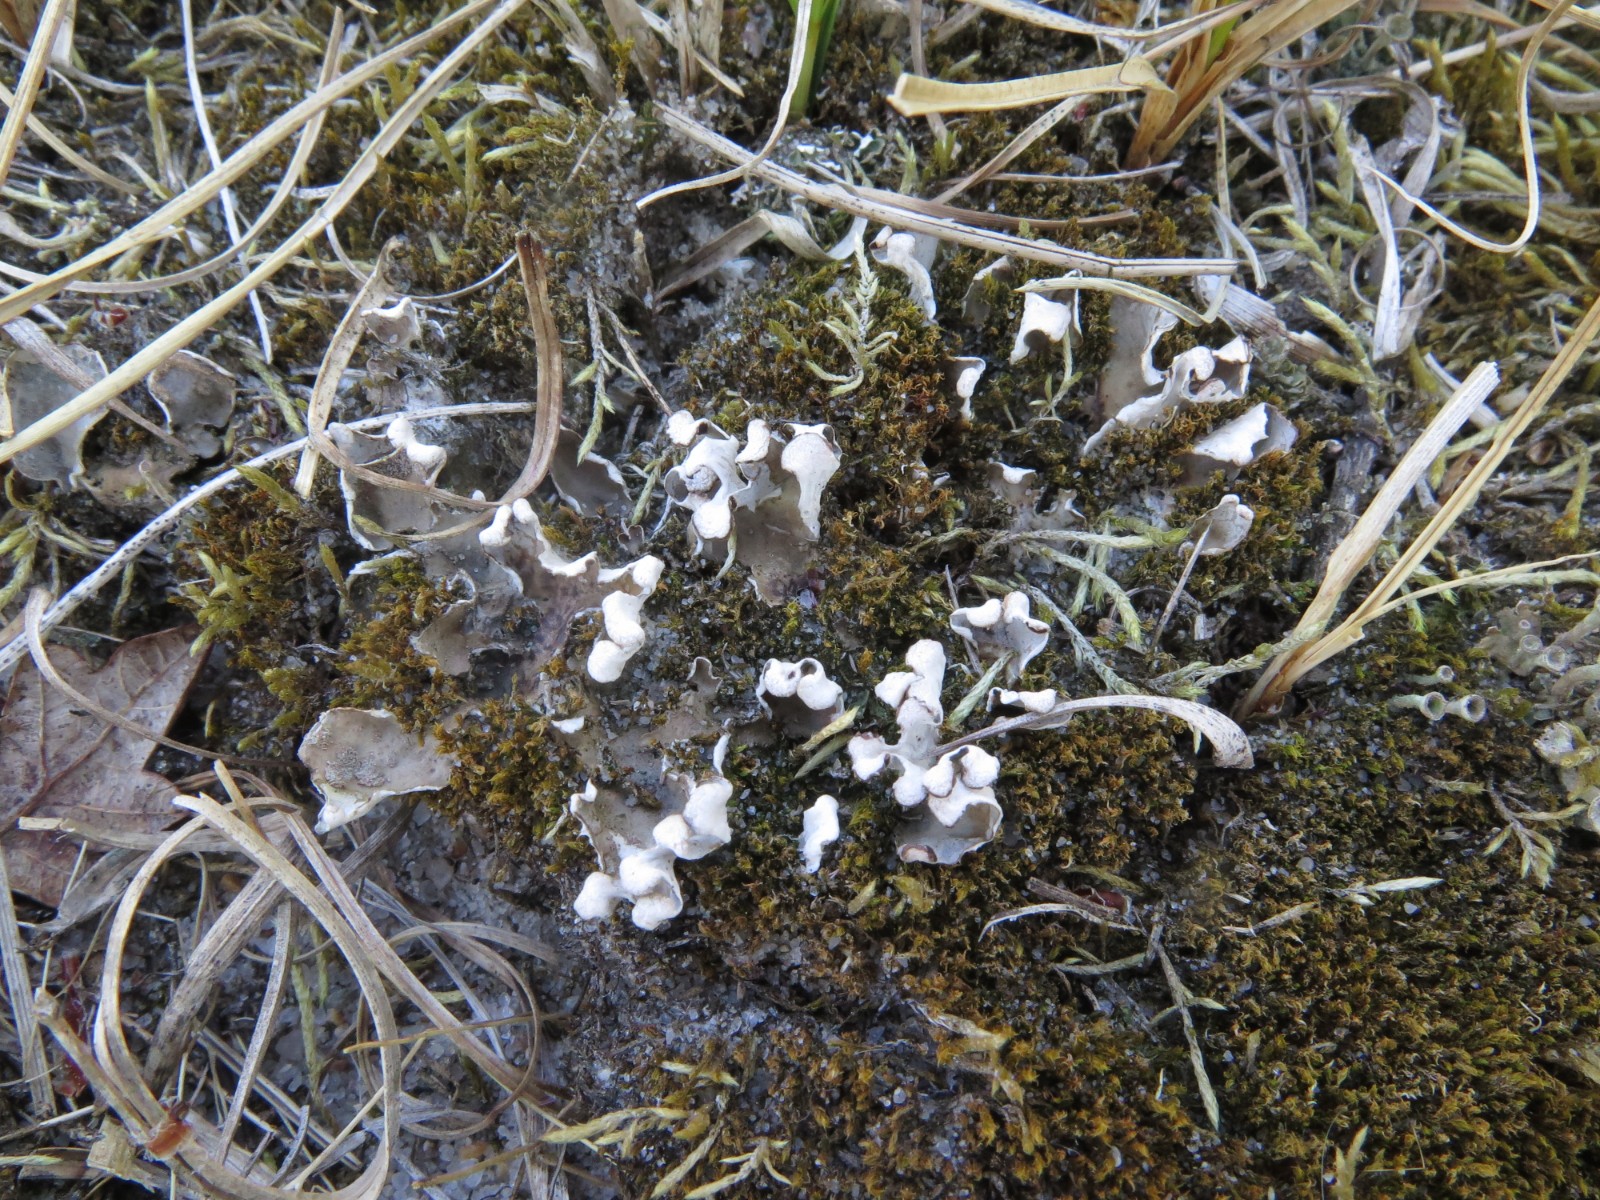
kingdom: Fungi
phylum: Ascomycota
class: Lecanoromycetes
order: Peltigerales
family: Peltigeraceae
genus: Peltigera
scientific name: Peltigera didactyla
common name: liden skjoldlav
